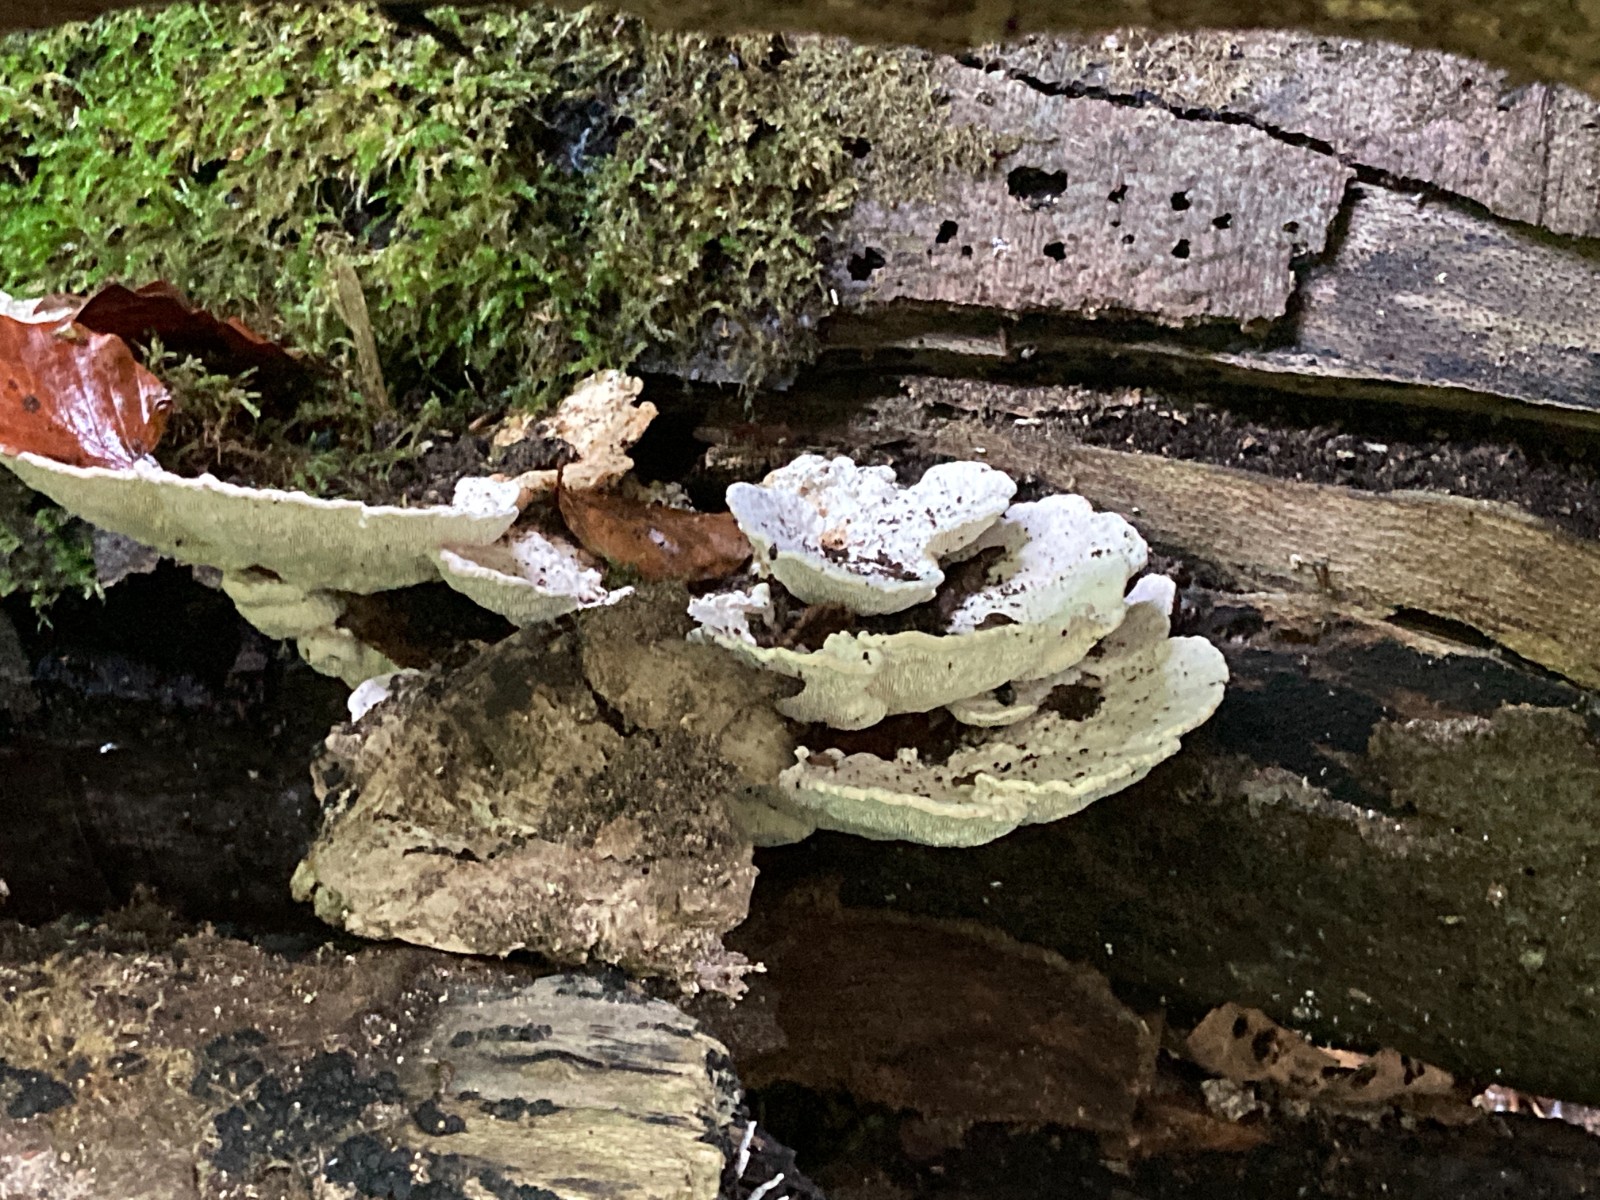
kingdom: Fungi
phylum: Basidiomycota
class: Agaricomycetes
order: Polyporales
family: Polyporaceae
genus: Trametes
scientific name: Trametes gibbosa
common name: puklet læderporesvamp
